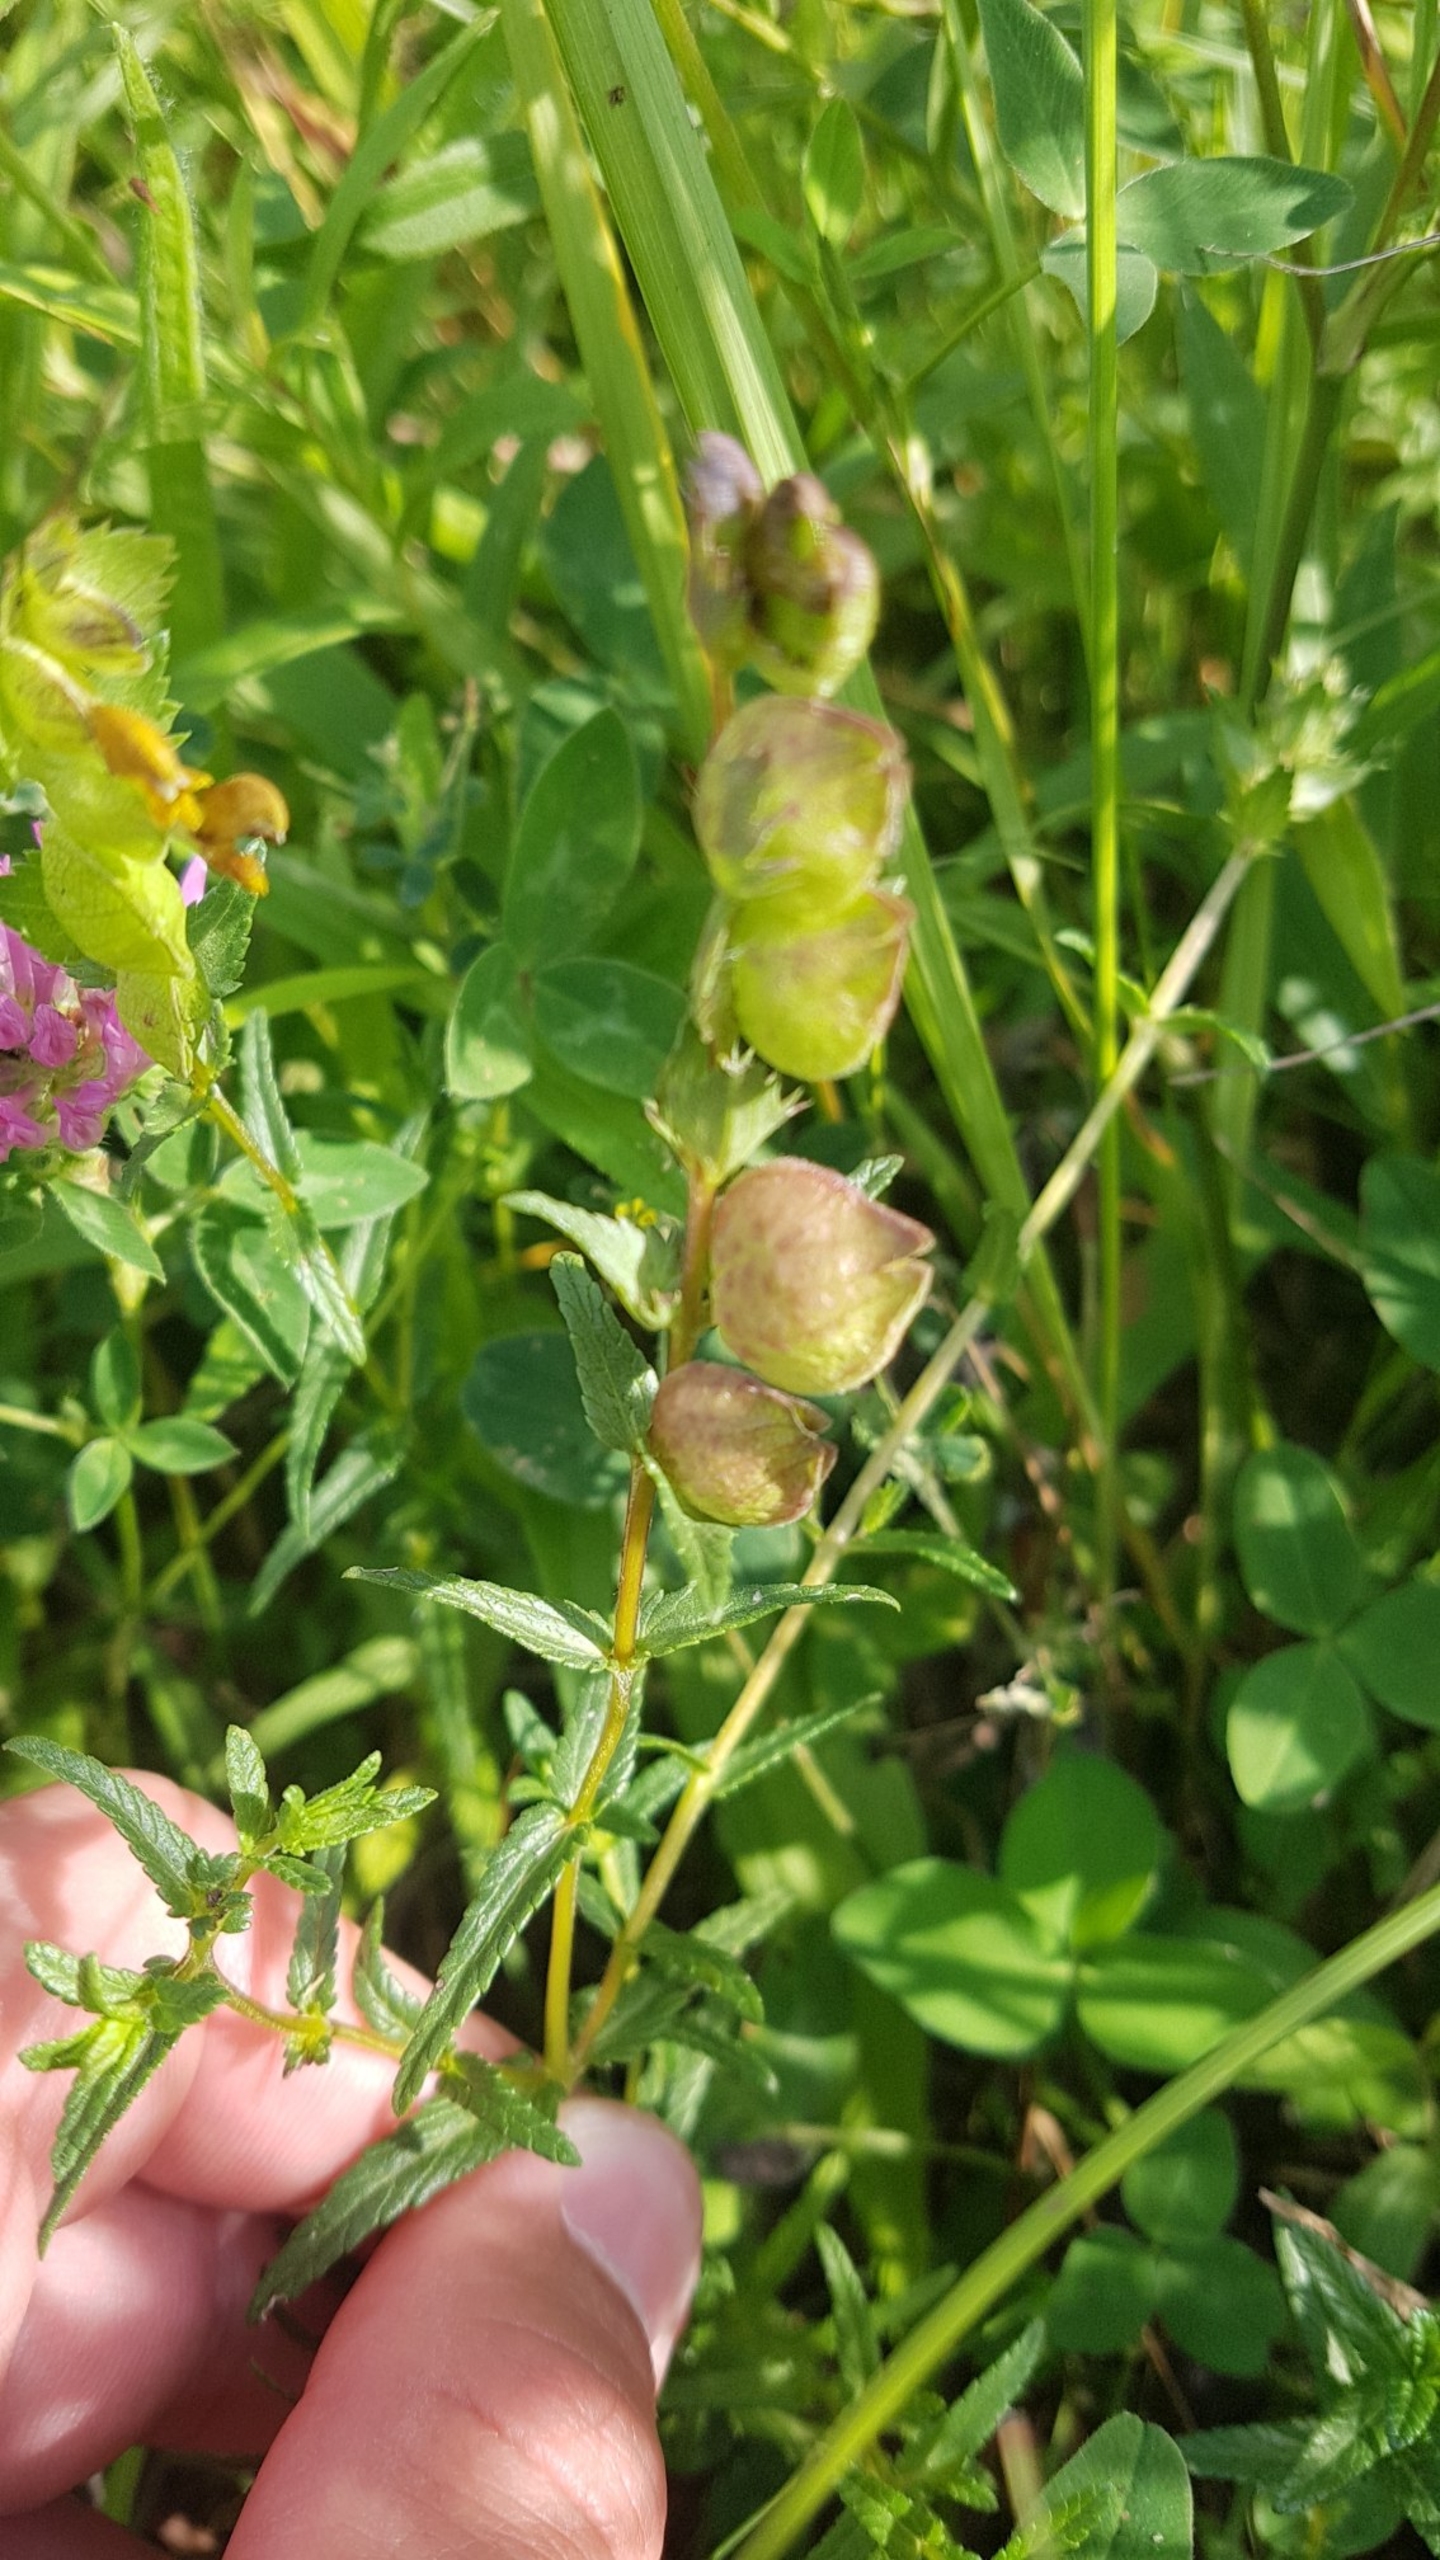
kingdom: Plantae
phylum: Tracheophyta
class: Magnoliopsida
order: Lamiales
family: Orobanchaceae
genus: Rhinanthus
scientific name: Rhinanthus minor
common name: Liden skjaller
